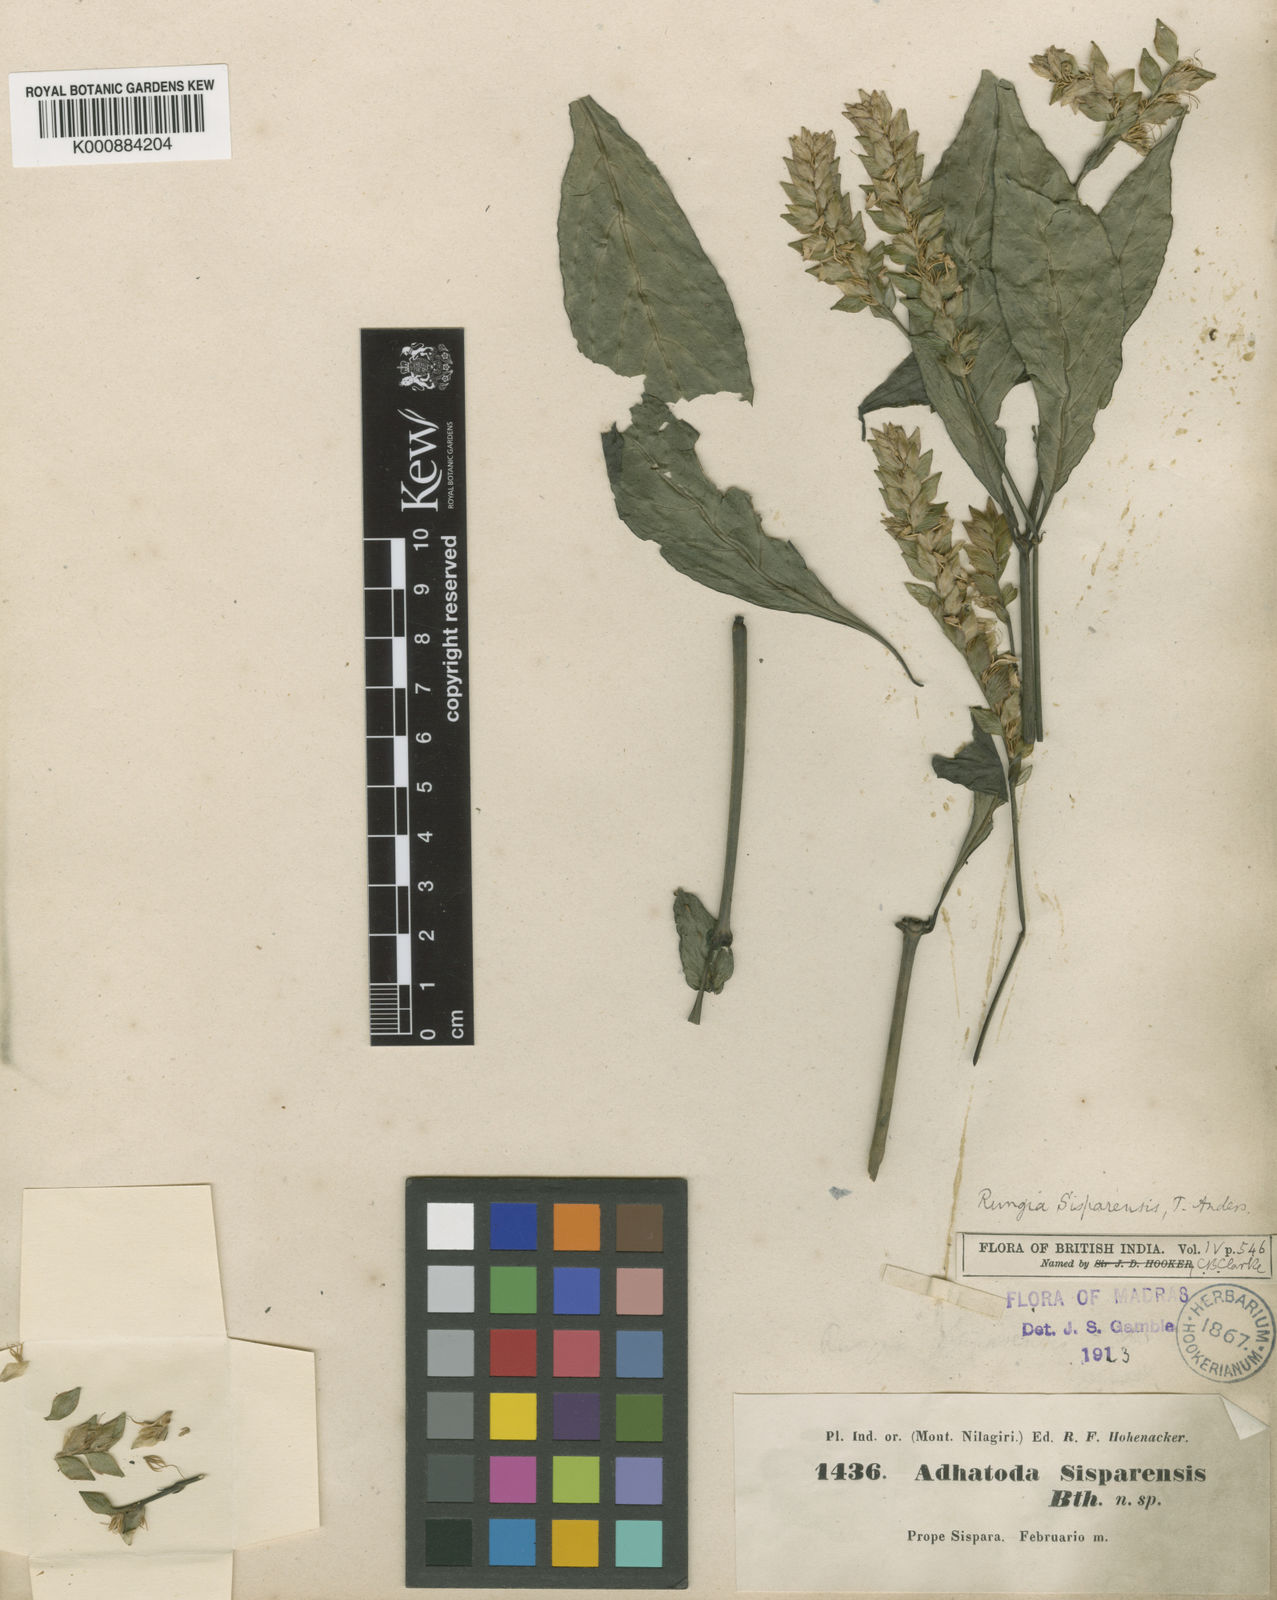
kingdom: Plantae
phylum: Tracheophyta
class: Magnoliopsida
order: Lamiales
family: Acanthaceae
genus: Justicia
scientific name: Justicia
